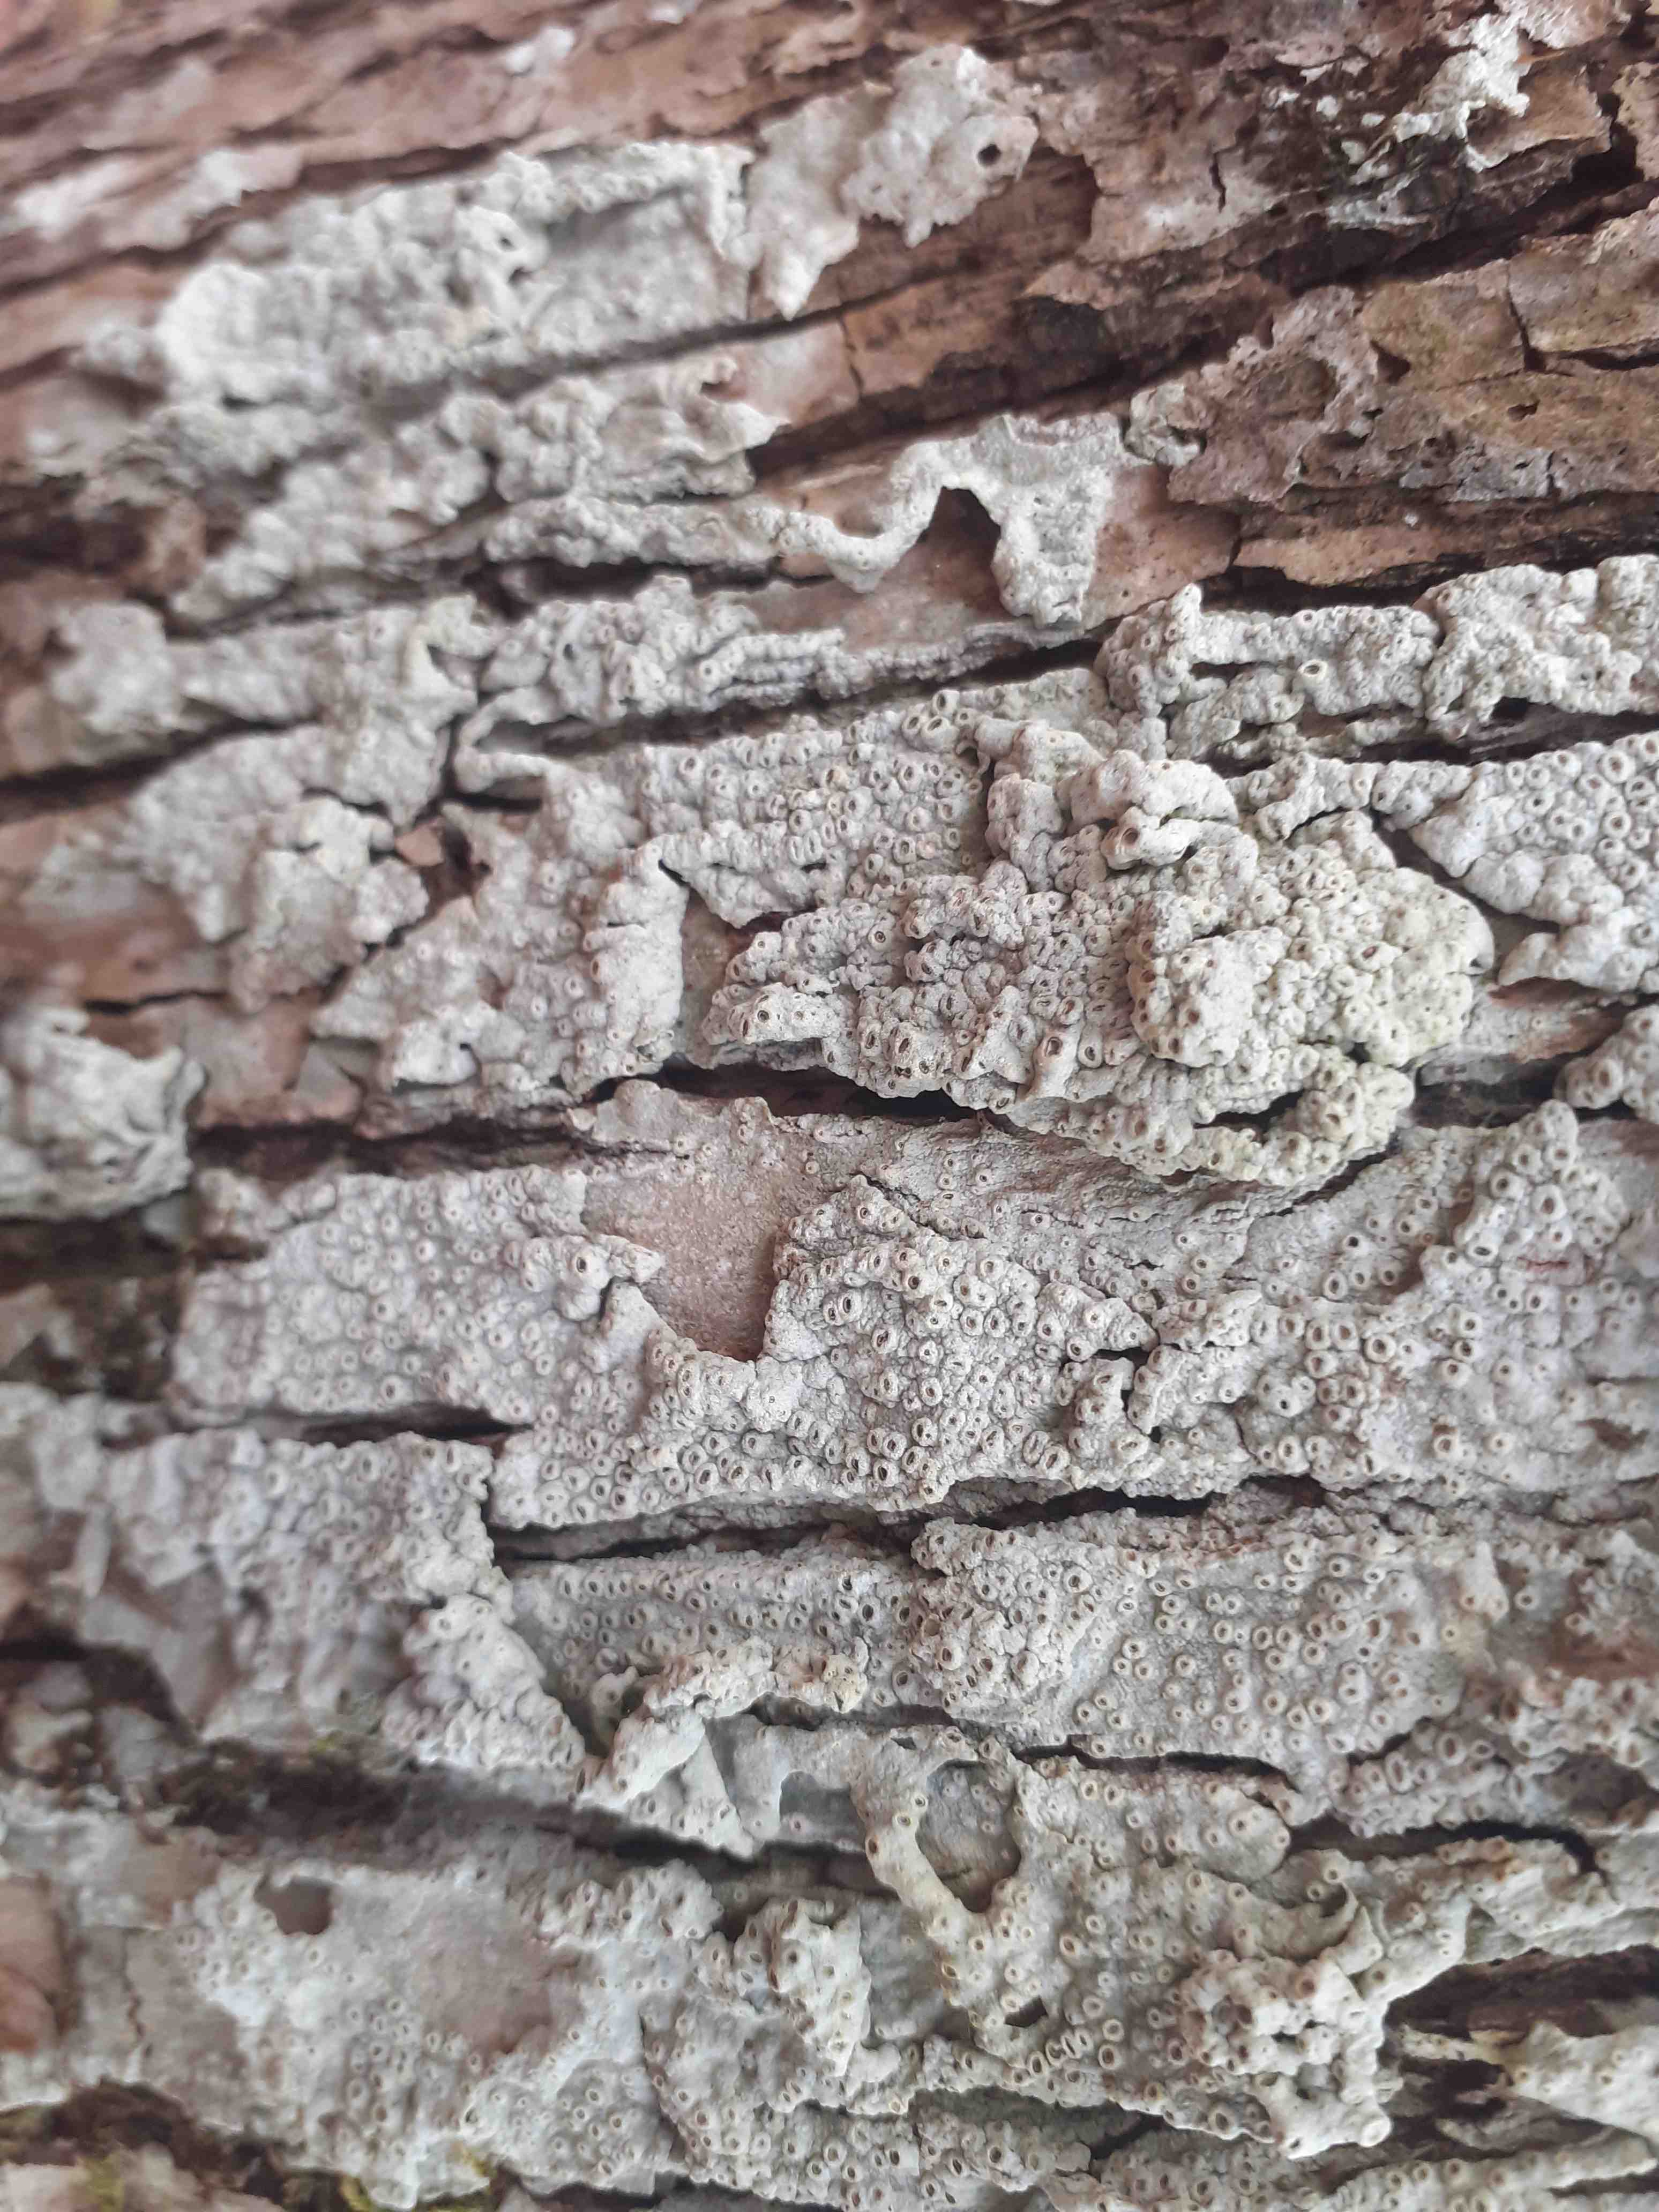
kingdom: Fungi
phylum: Ascomycota
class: Lecanoromycetes
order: Ostropales
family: Graphidaceae
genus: Thelotrema
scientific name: Thelotrema lepadinum
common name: almindelig slørkantlav
